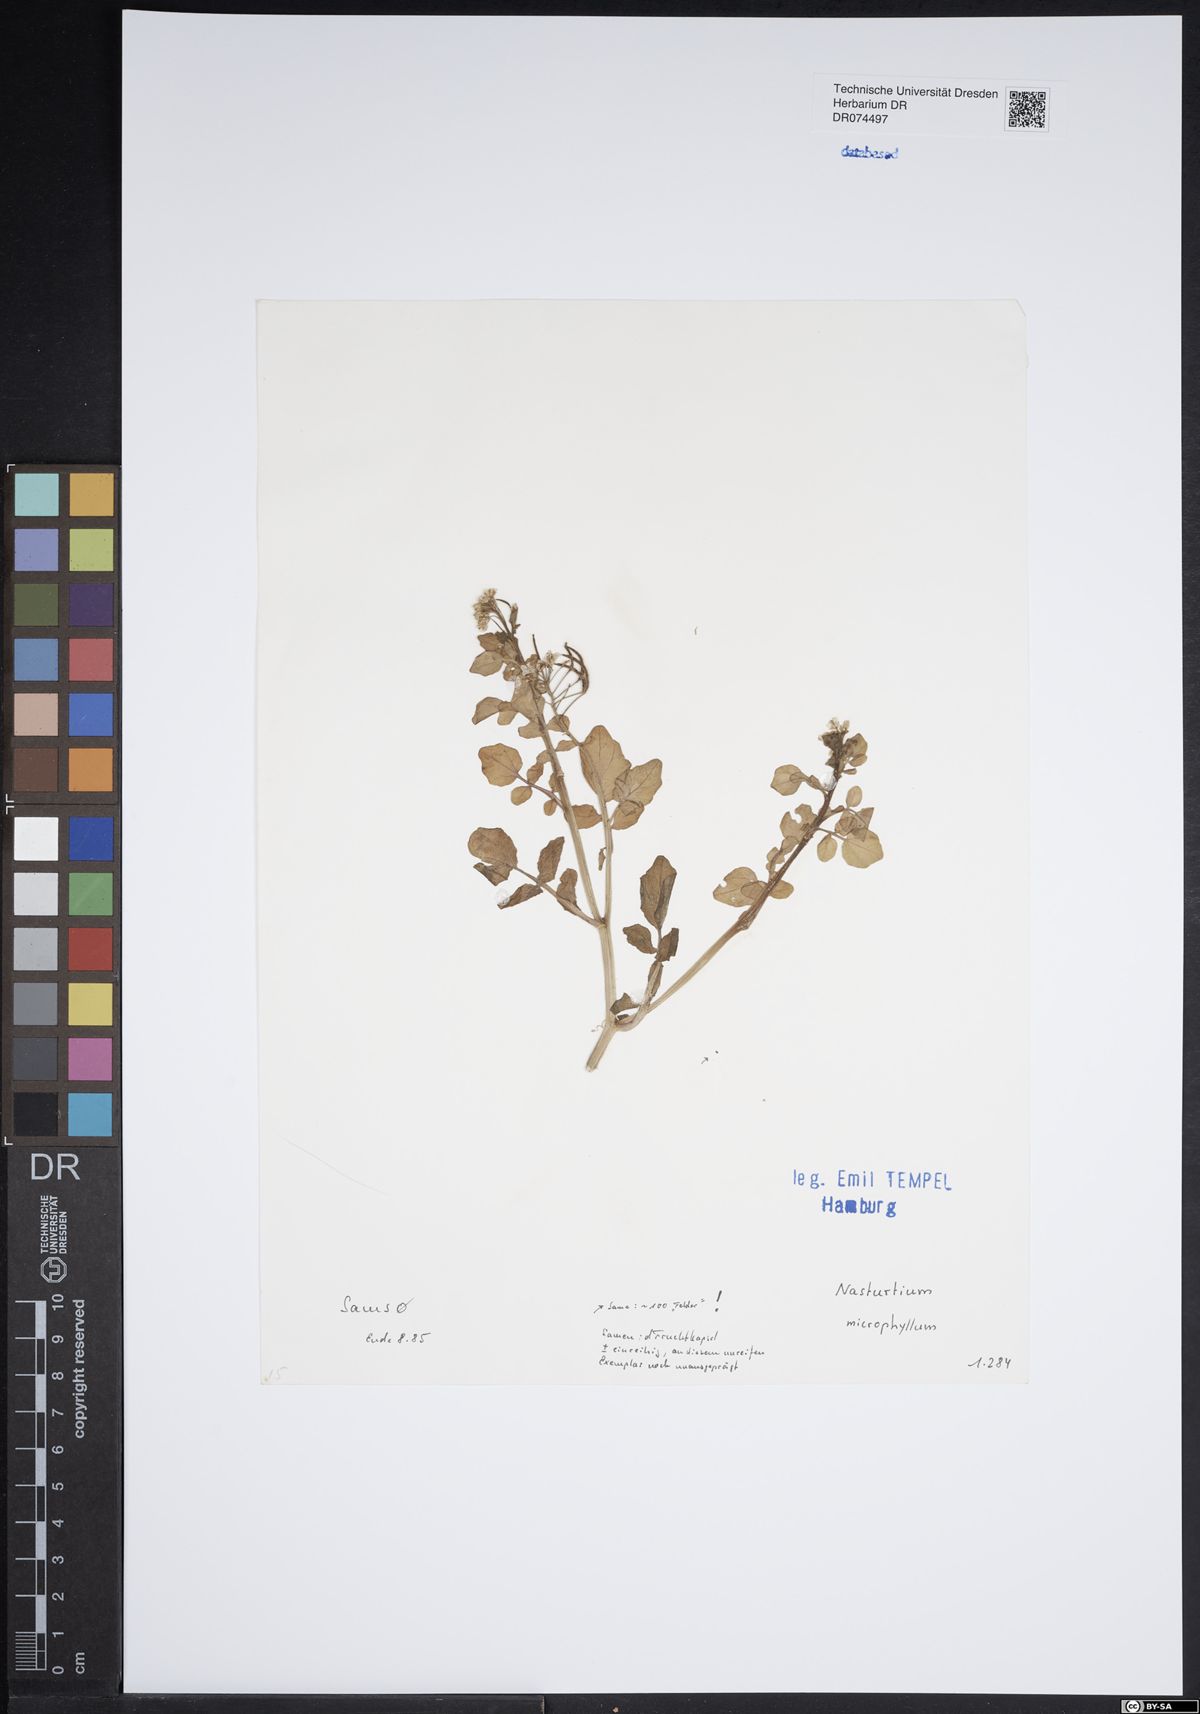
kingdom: Plantae
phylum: Tracheophyta
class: Magnoliopsida
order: Brassicales
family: Brassicaceae
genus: Rorippa
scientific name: Rorippa cryptantha
